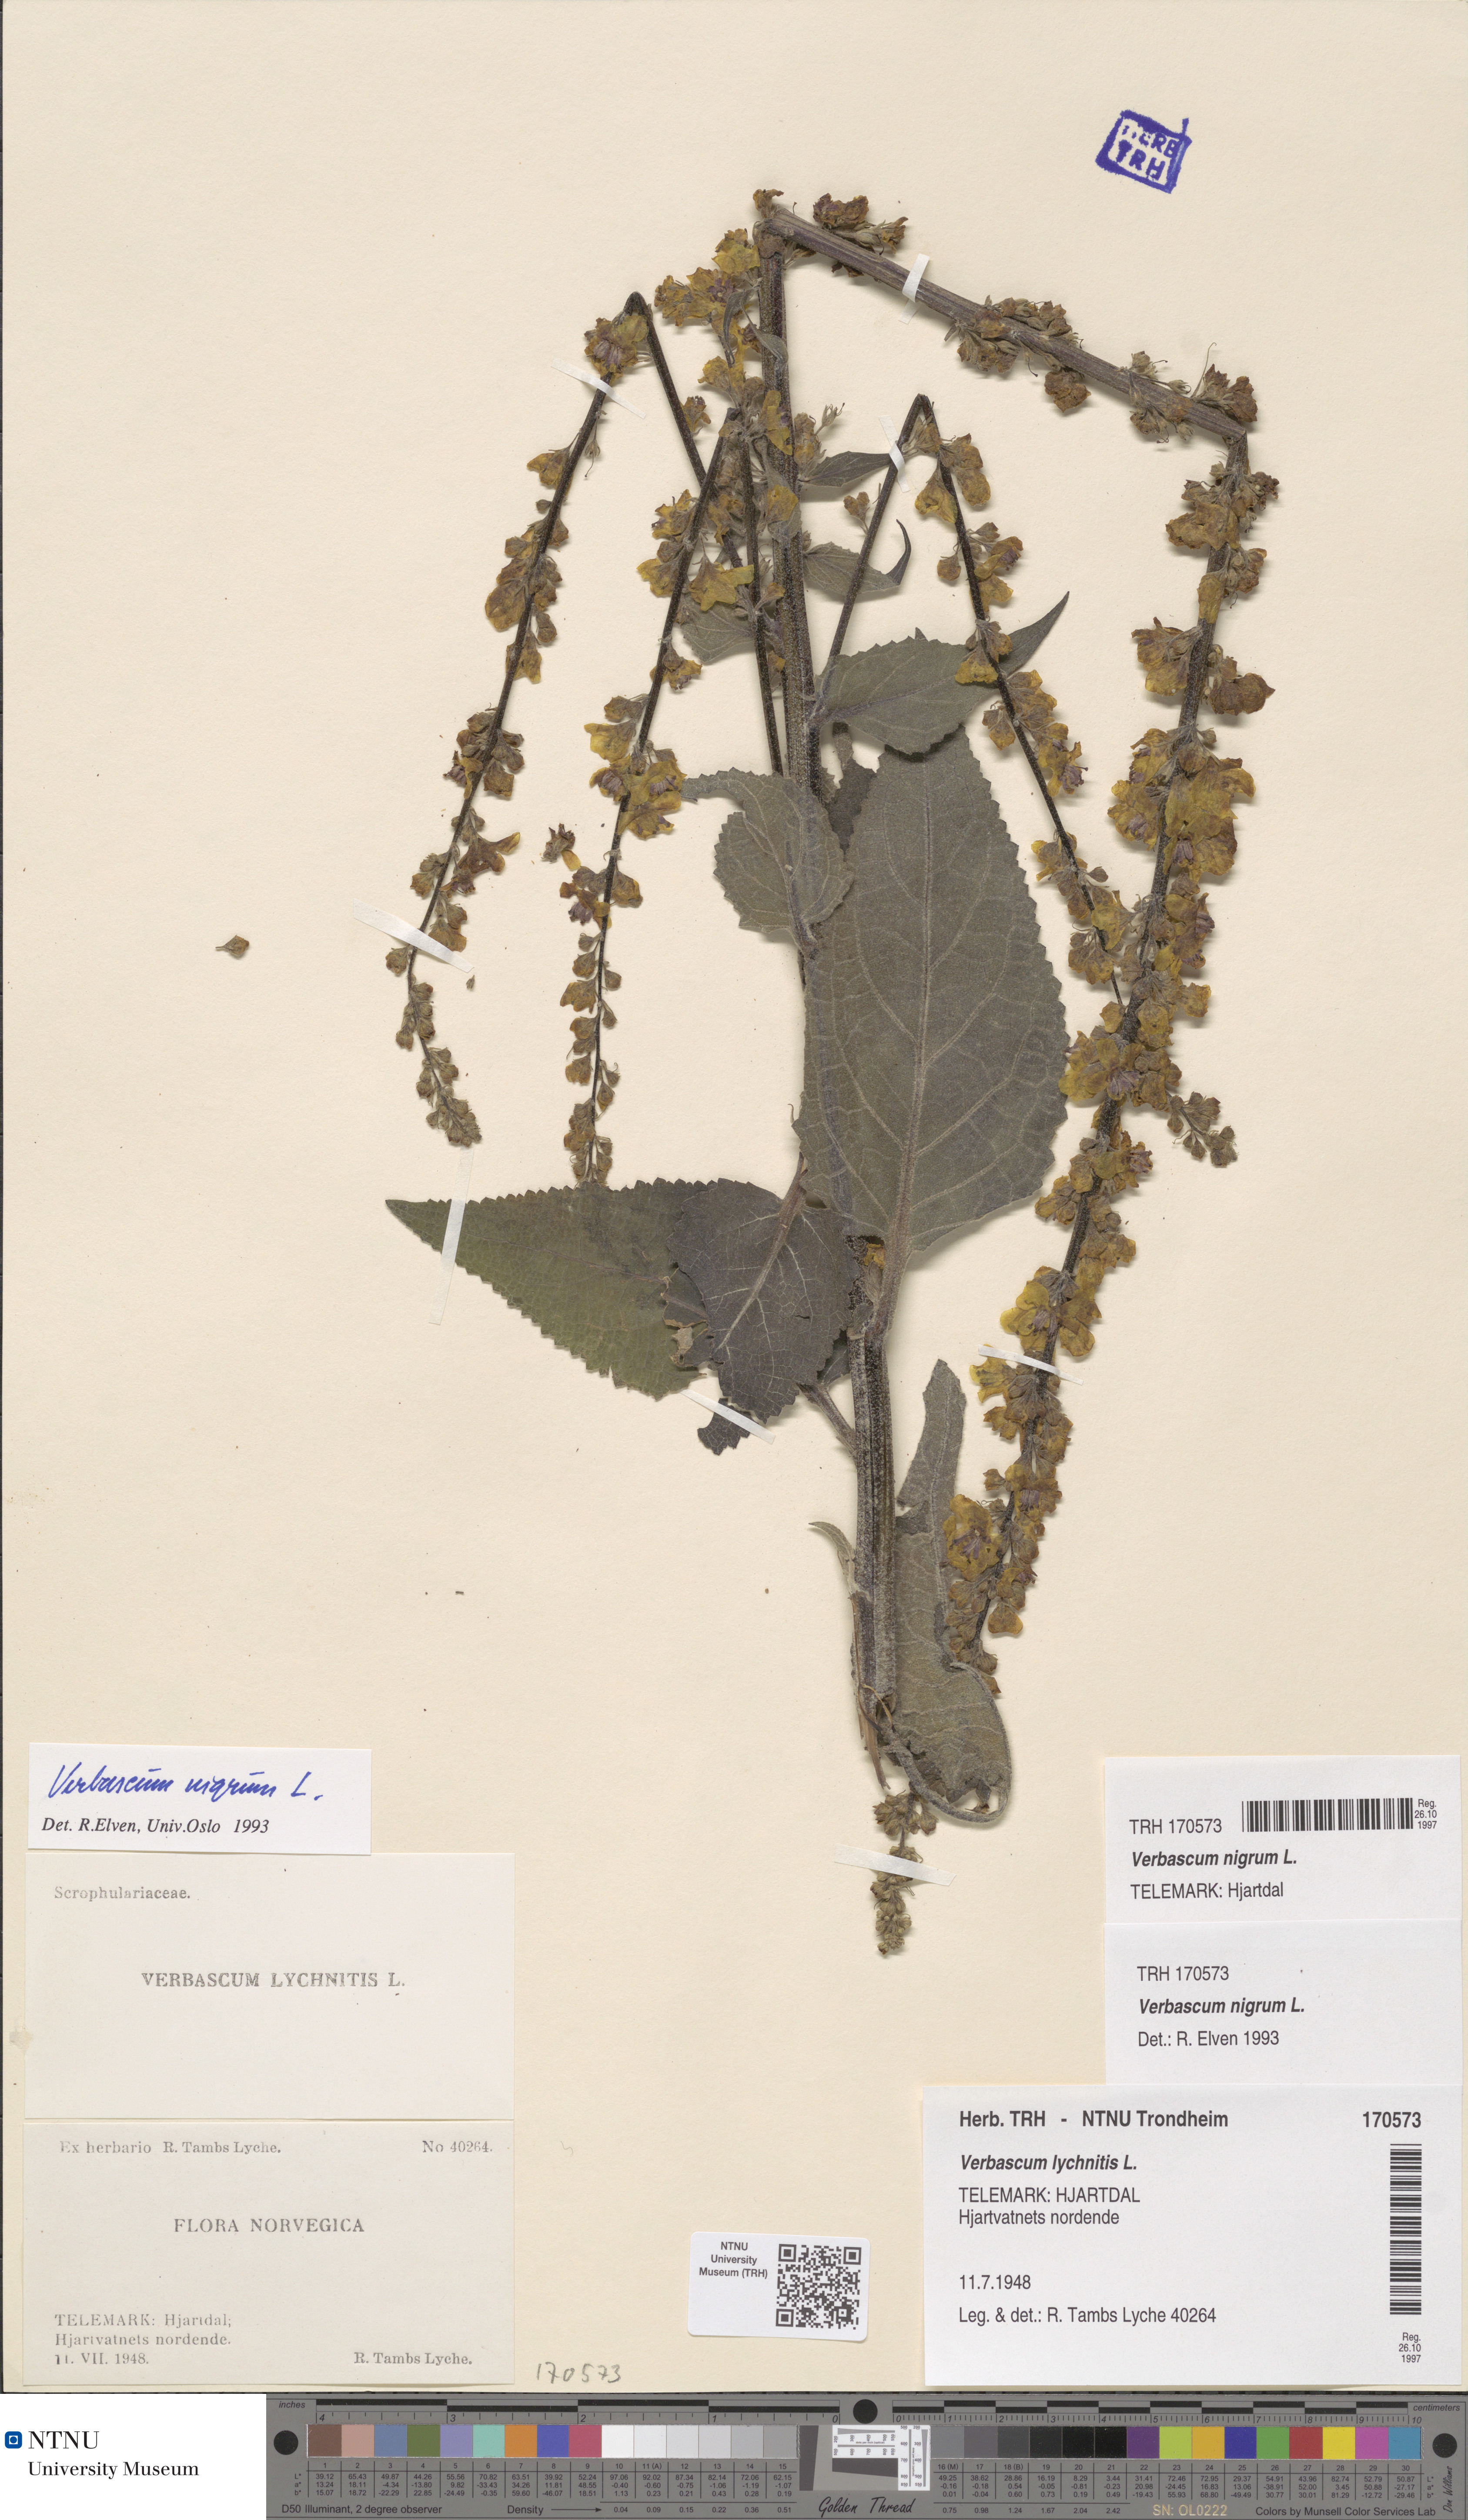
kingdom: Plantae
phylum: Tracheophyta
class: Magnoliopsida
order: Lamiales
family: Scrophulariaceae
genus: Verbascum
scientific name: Verbascum nigrum
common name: Dark mullein
